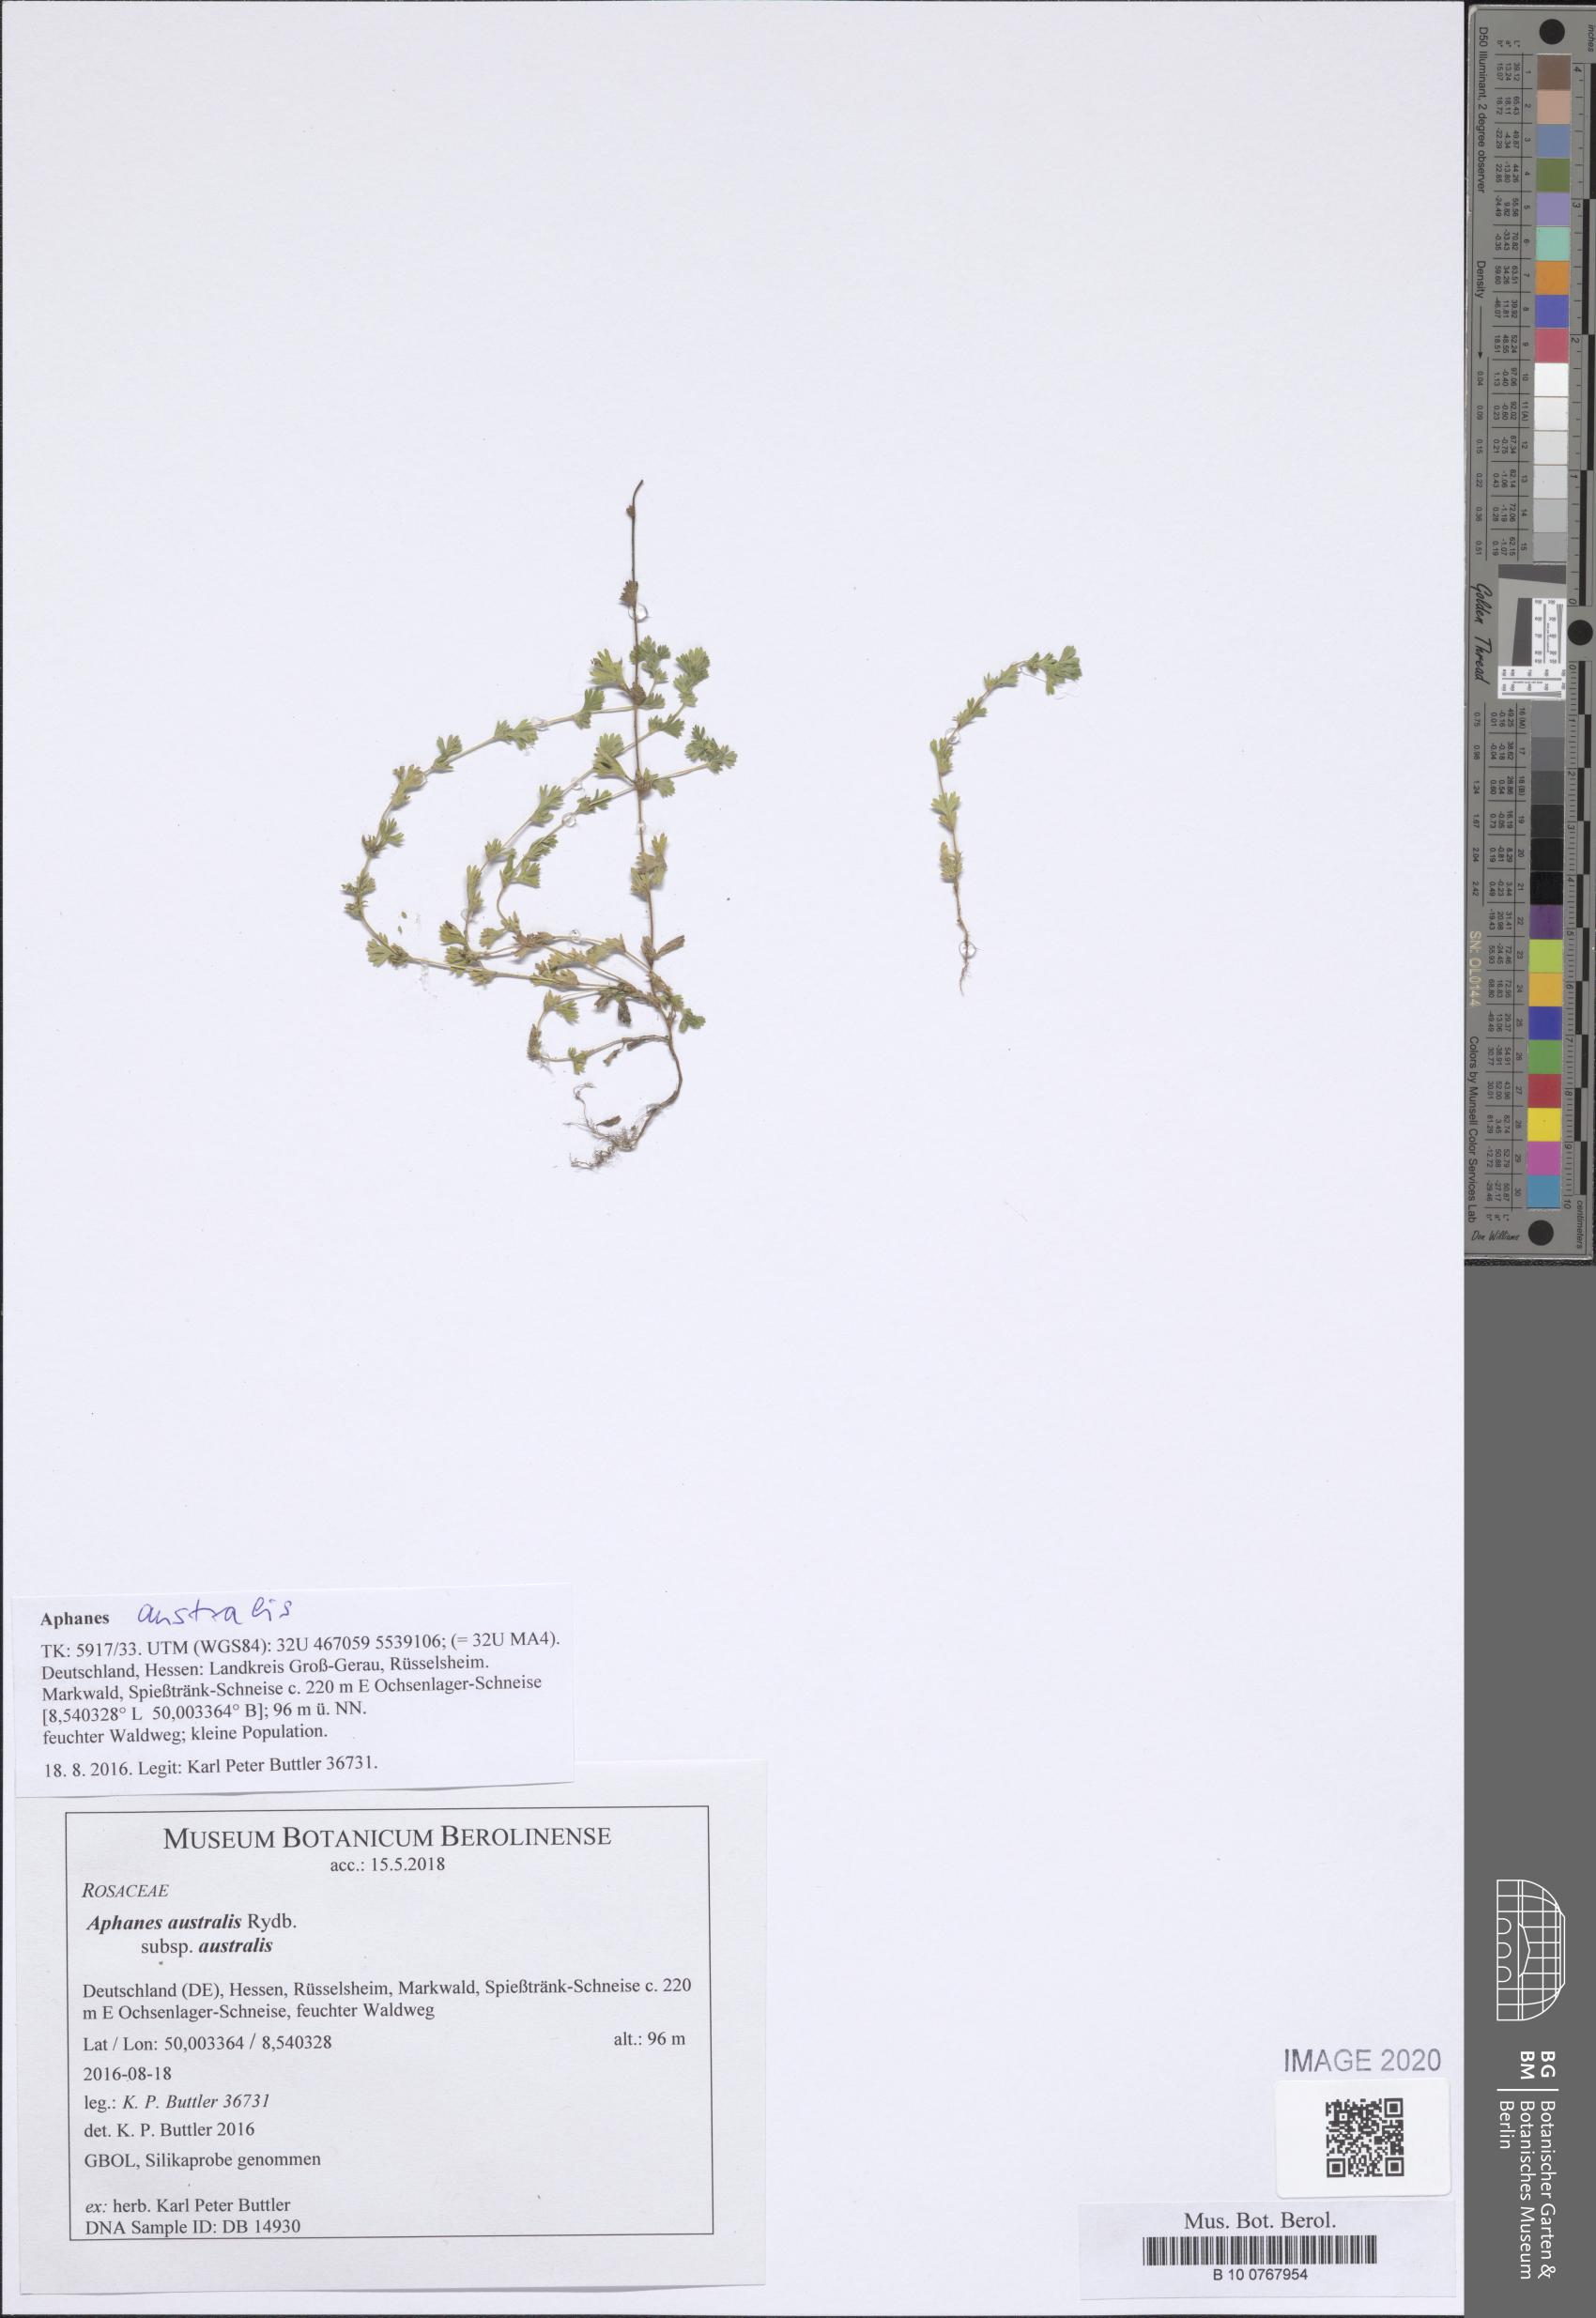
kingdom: Plantae
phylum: Tracheophyta
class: Magnoliopsida
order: Rosales
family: Rosaceae
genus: Aphanes
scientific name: Aphanes australis
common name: Slender parsley-piert
